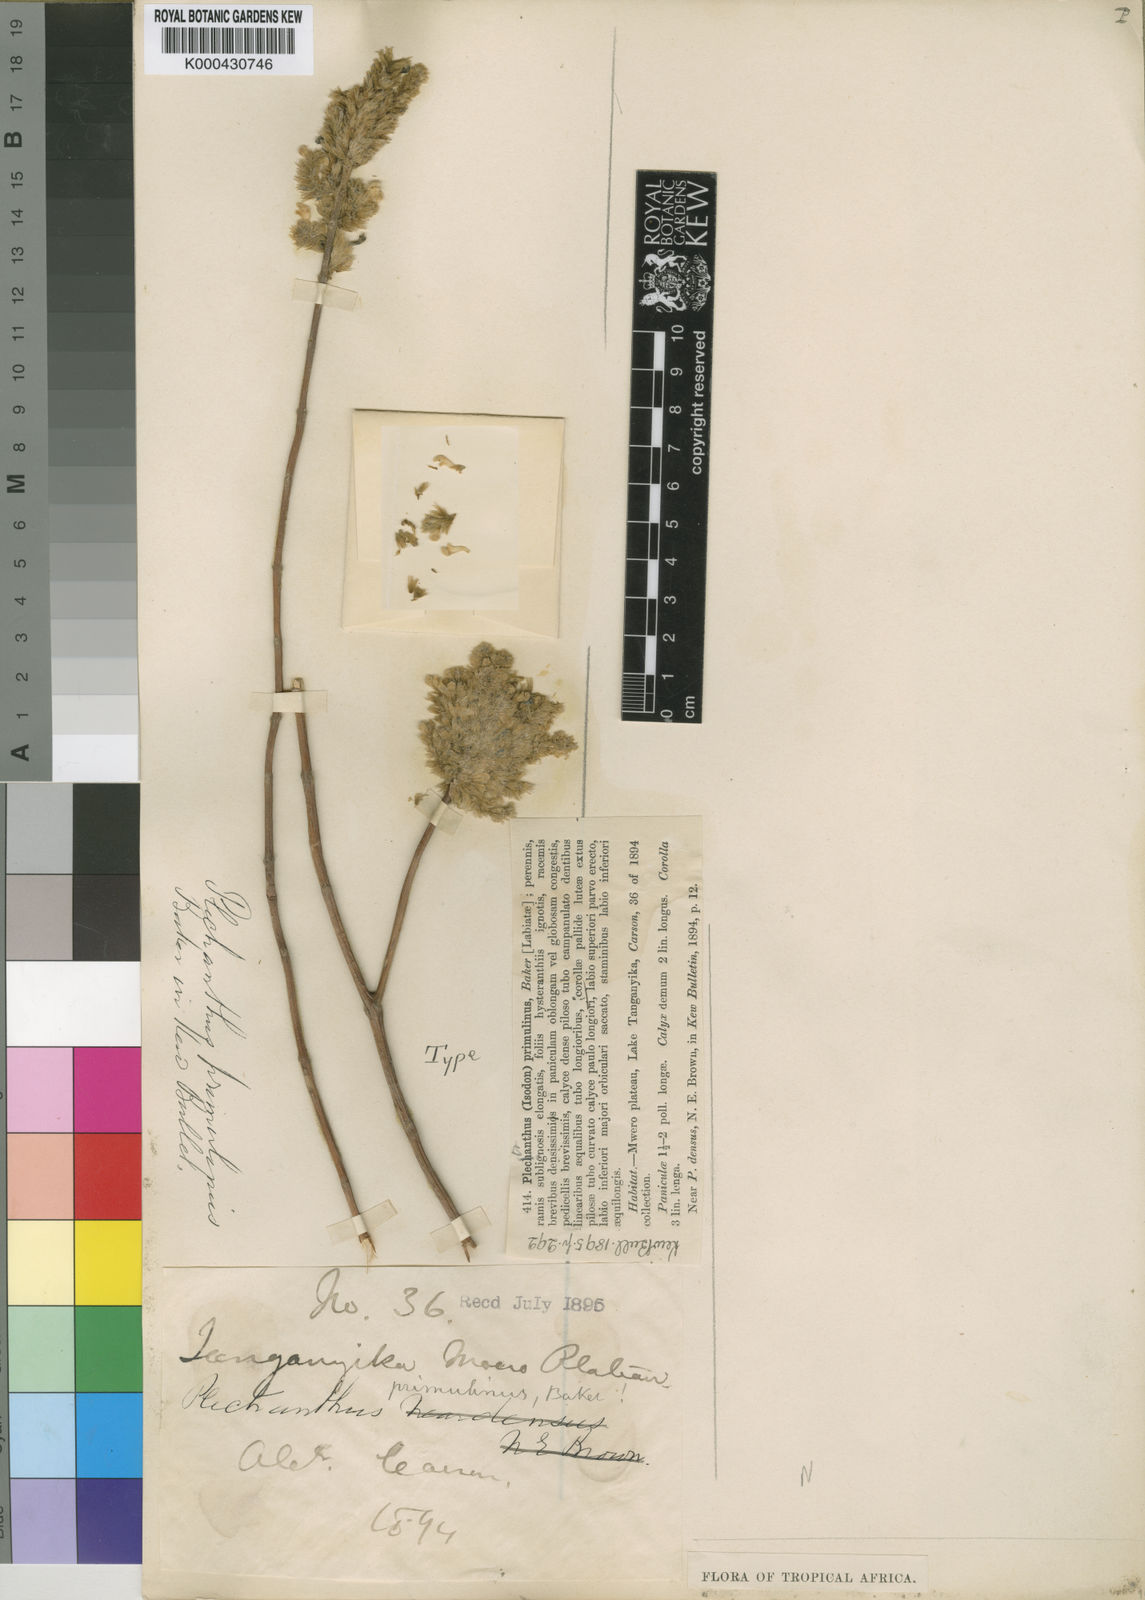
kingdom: Plantae
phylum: Tracheophyta
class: Magnoliopsida
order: Lamiales
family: Lamiaceae
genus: Coleus
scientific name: Coleus esculentus
